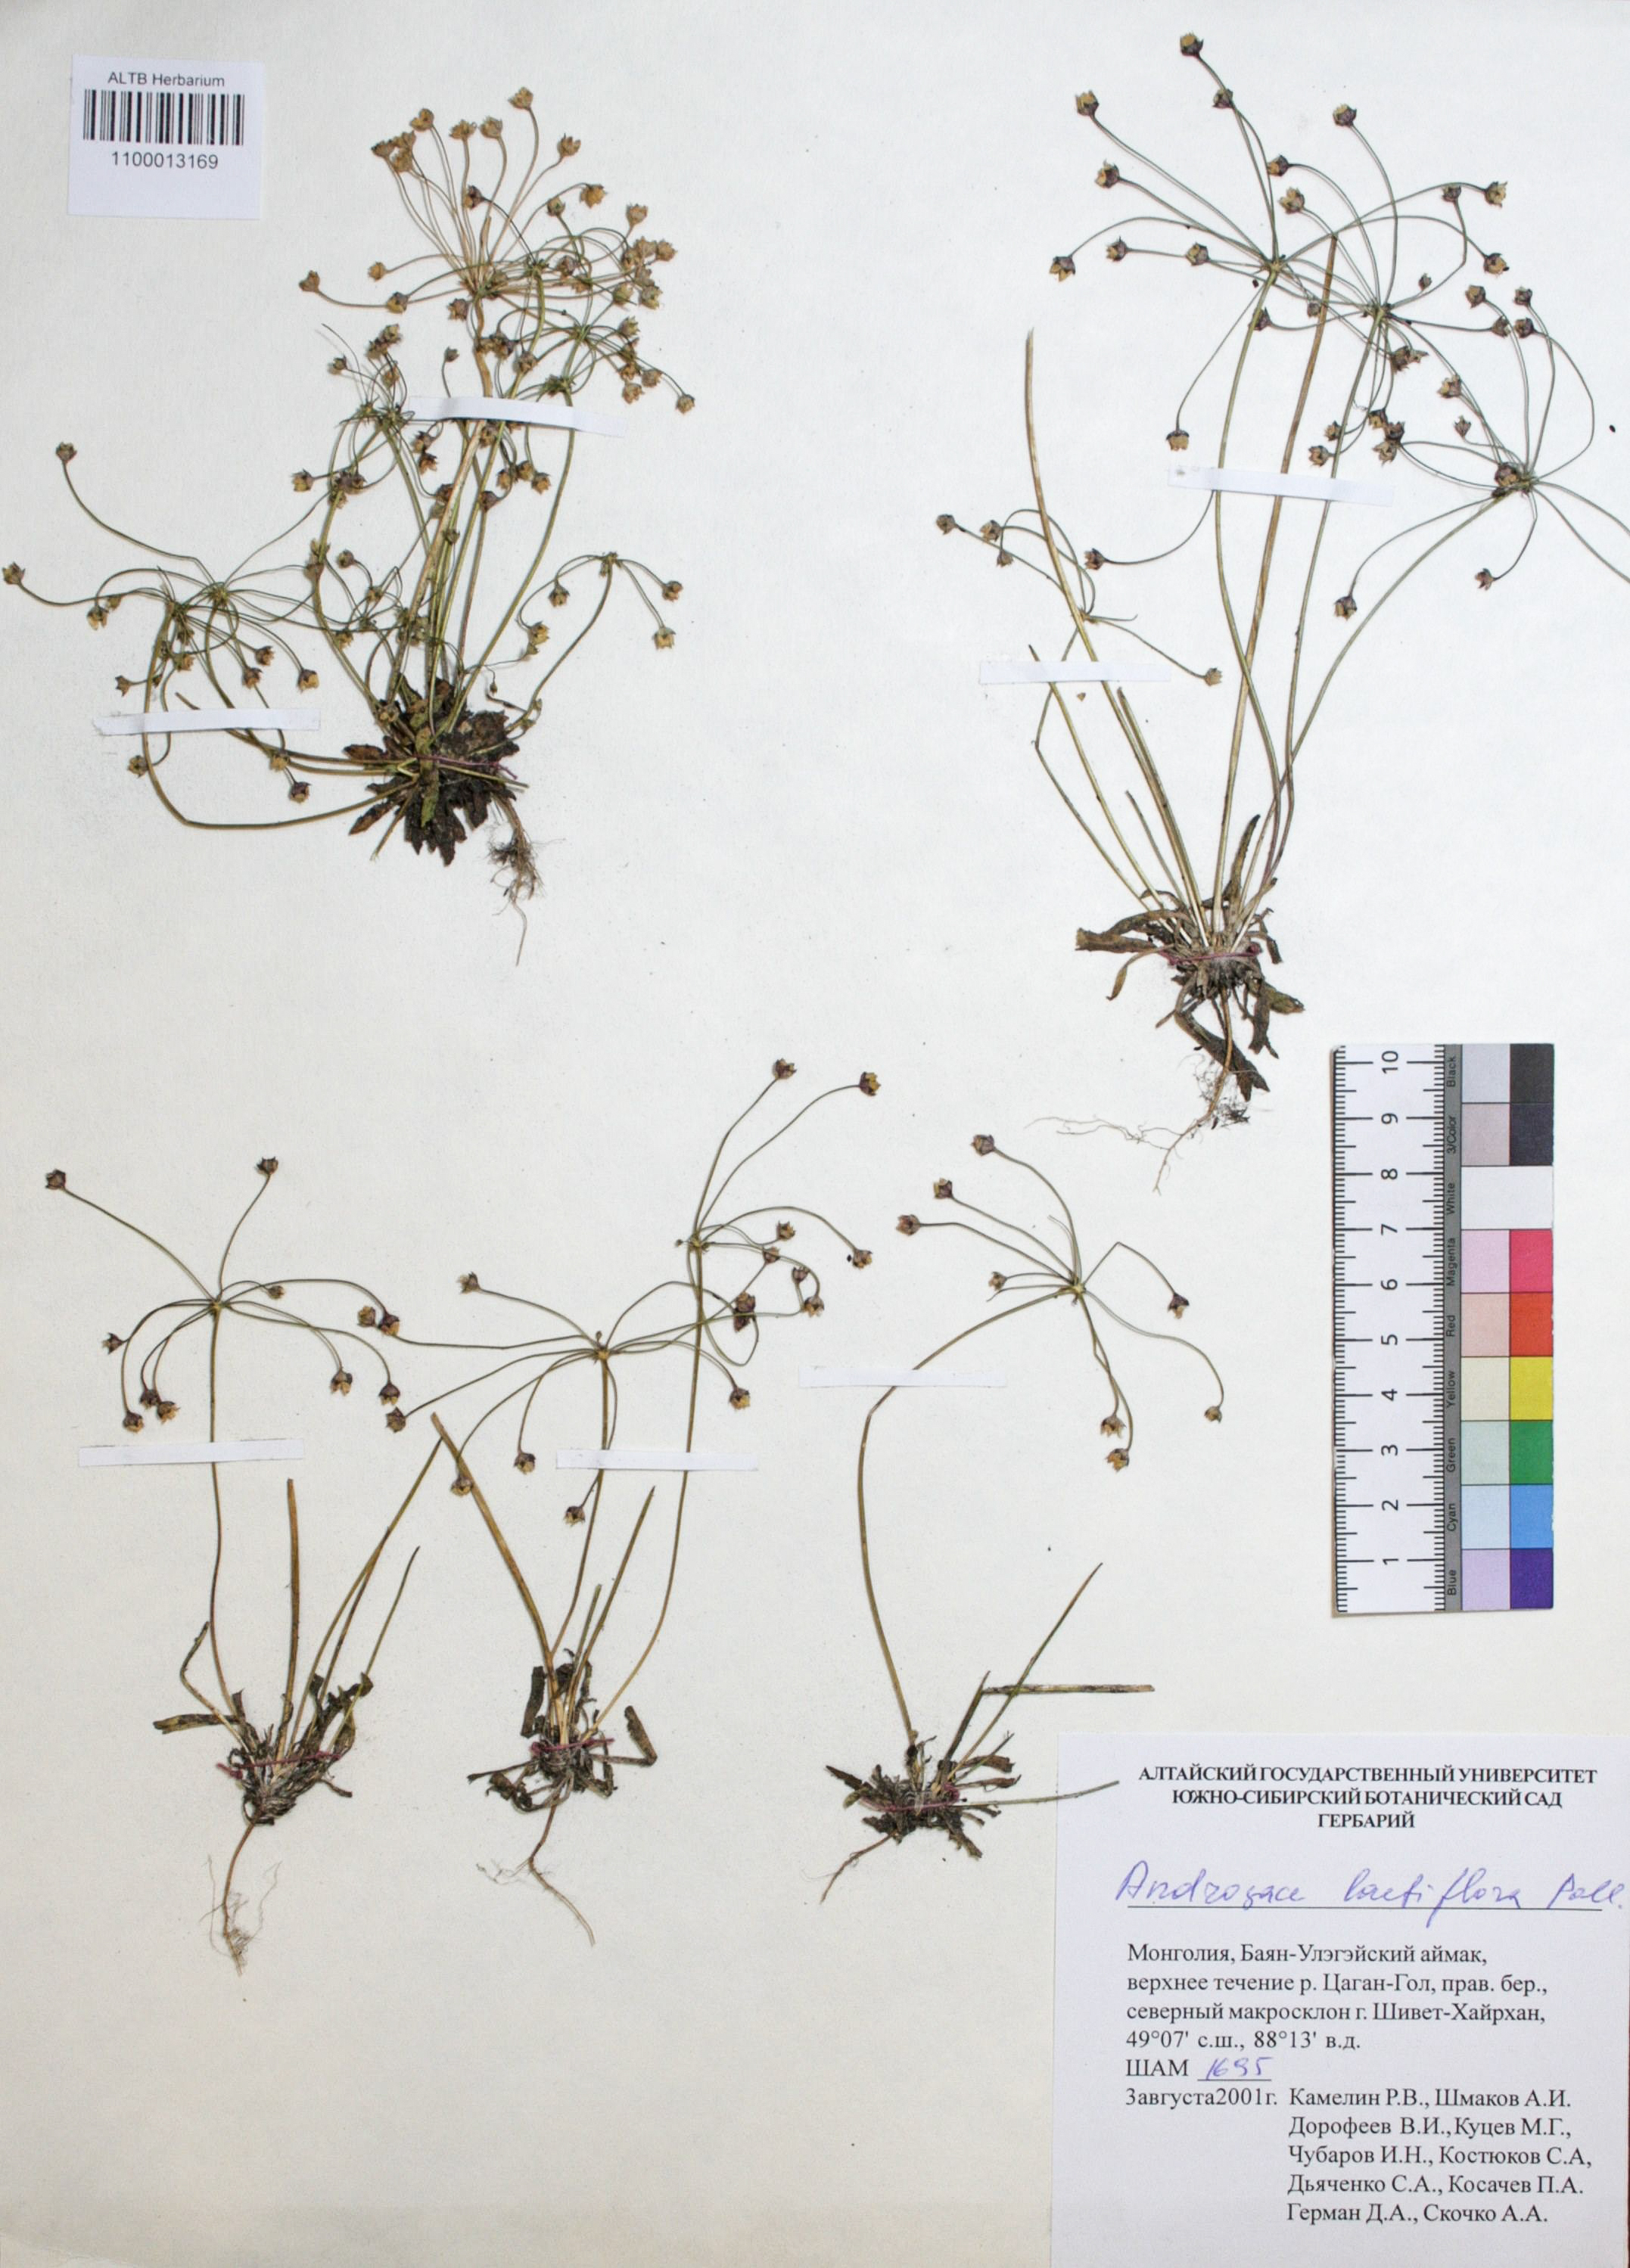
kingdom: Plantae
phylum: Tracheophyta
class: Magnoliopsida
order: Ericales
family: Primulaceae
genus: Androsace
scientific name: Androsace lactiflora
